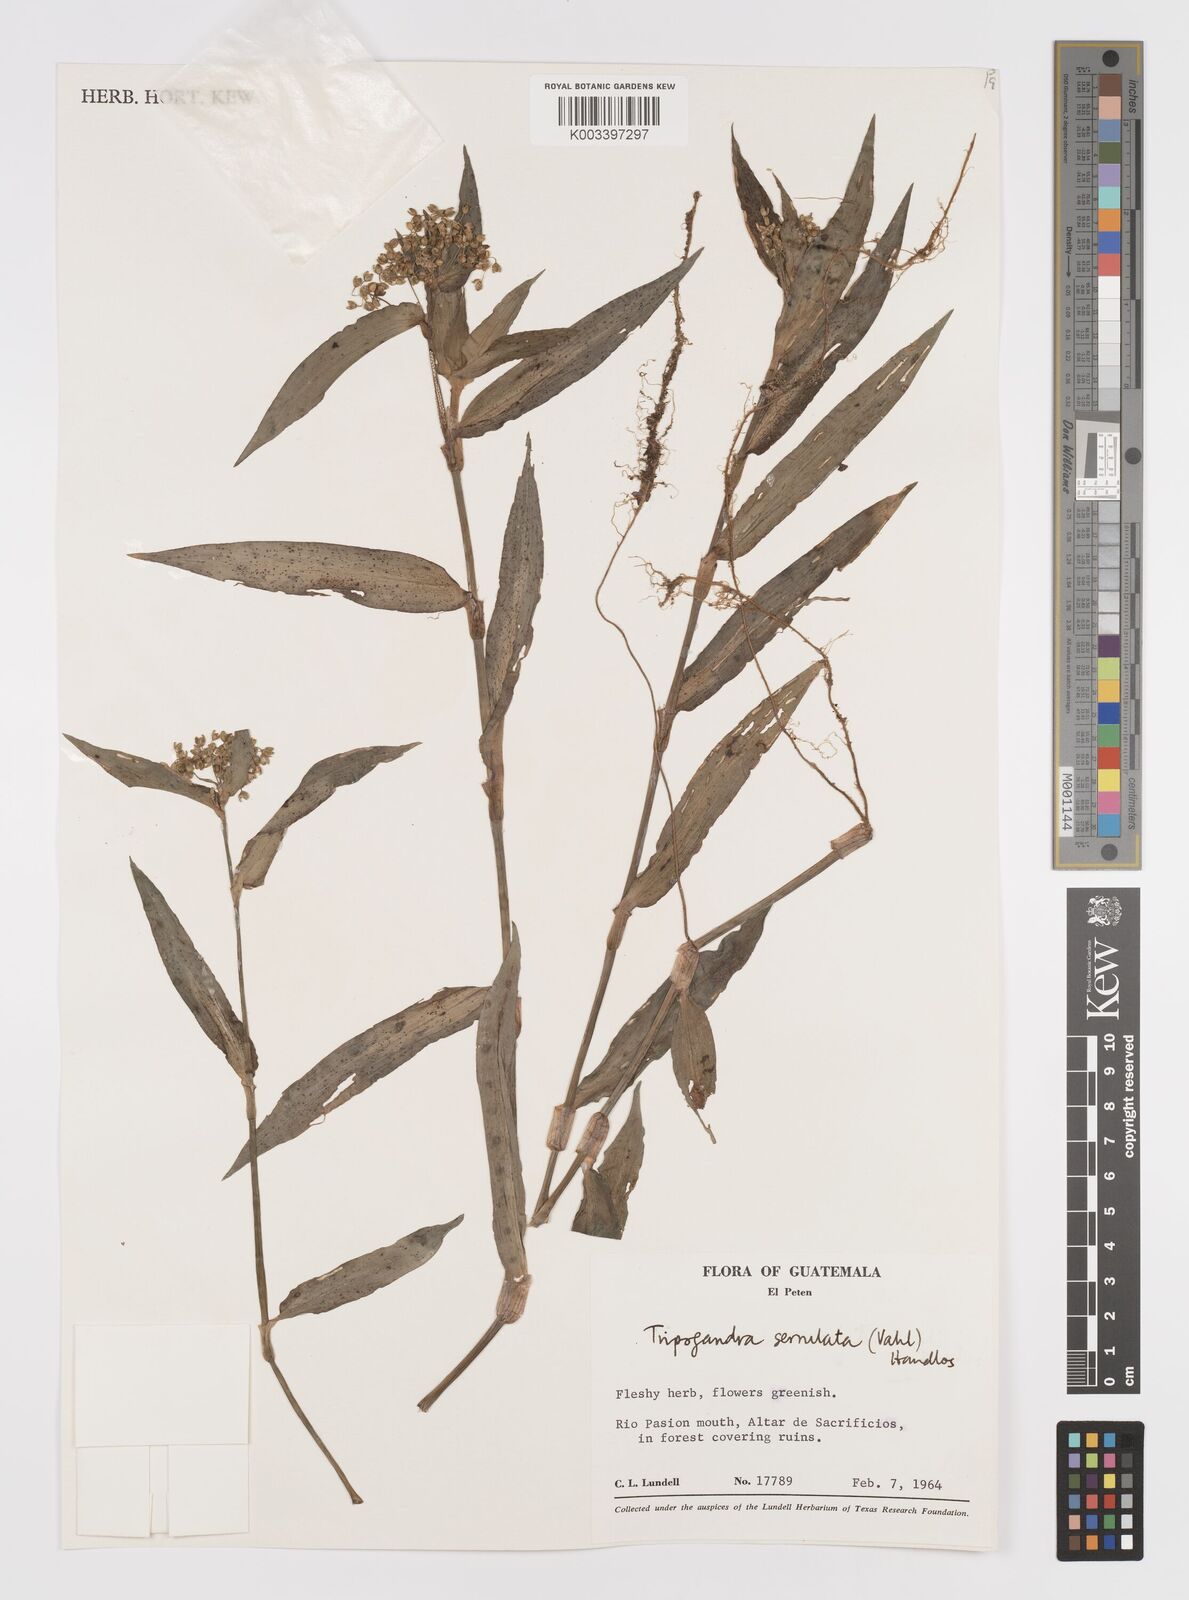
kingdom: Plantae
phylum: Tracheophyta
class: Liliopsida
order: Commelinales
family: Commelinaceae
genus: Callisia
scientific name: Callisia serrulata
